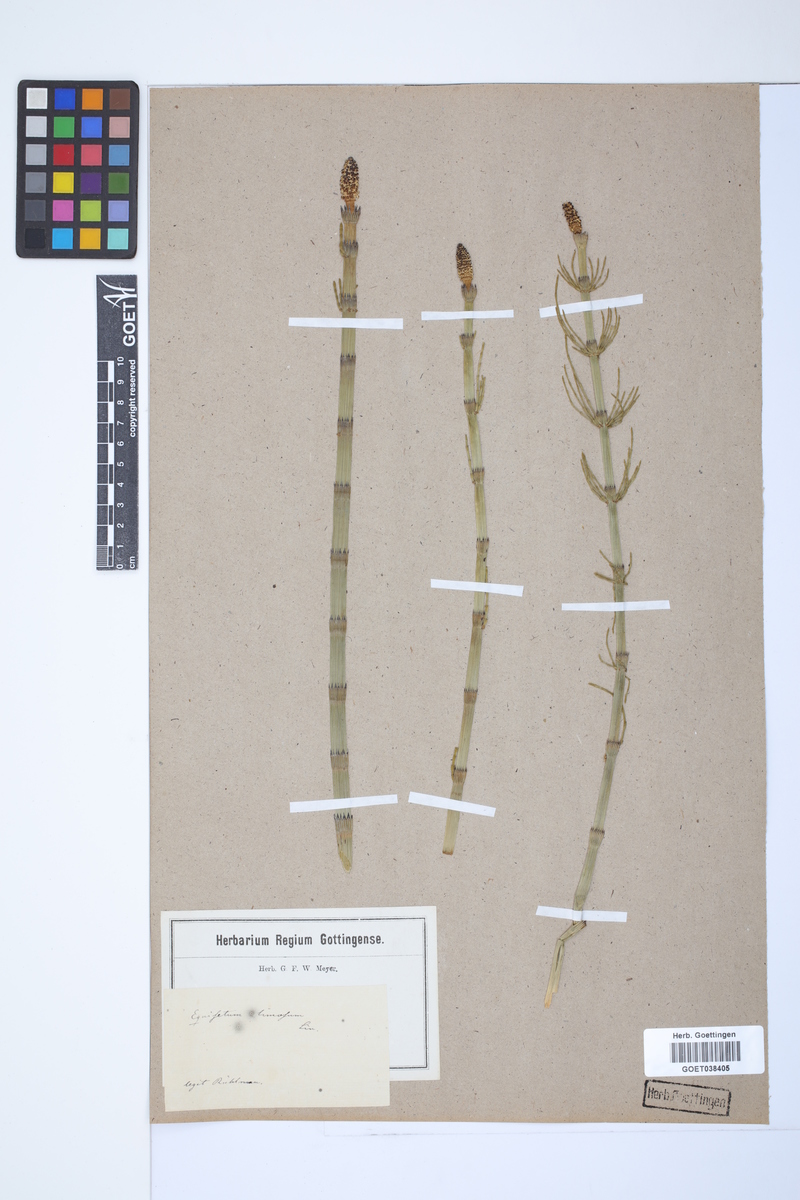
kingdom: Plantae
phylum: Tracheophyta
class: Polypodiopsida
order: Equisetales
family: Equisetaceae
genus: Equisetum
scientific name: Equisetum fluviatile
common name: Water horsetail
